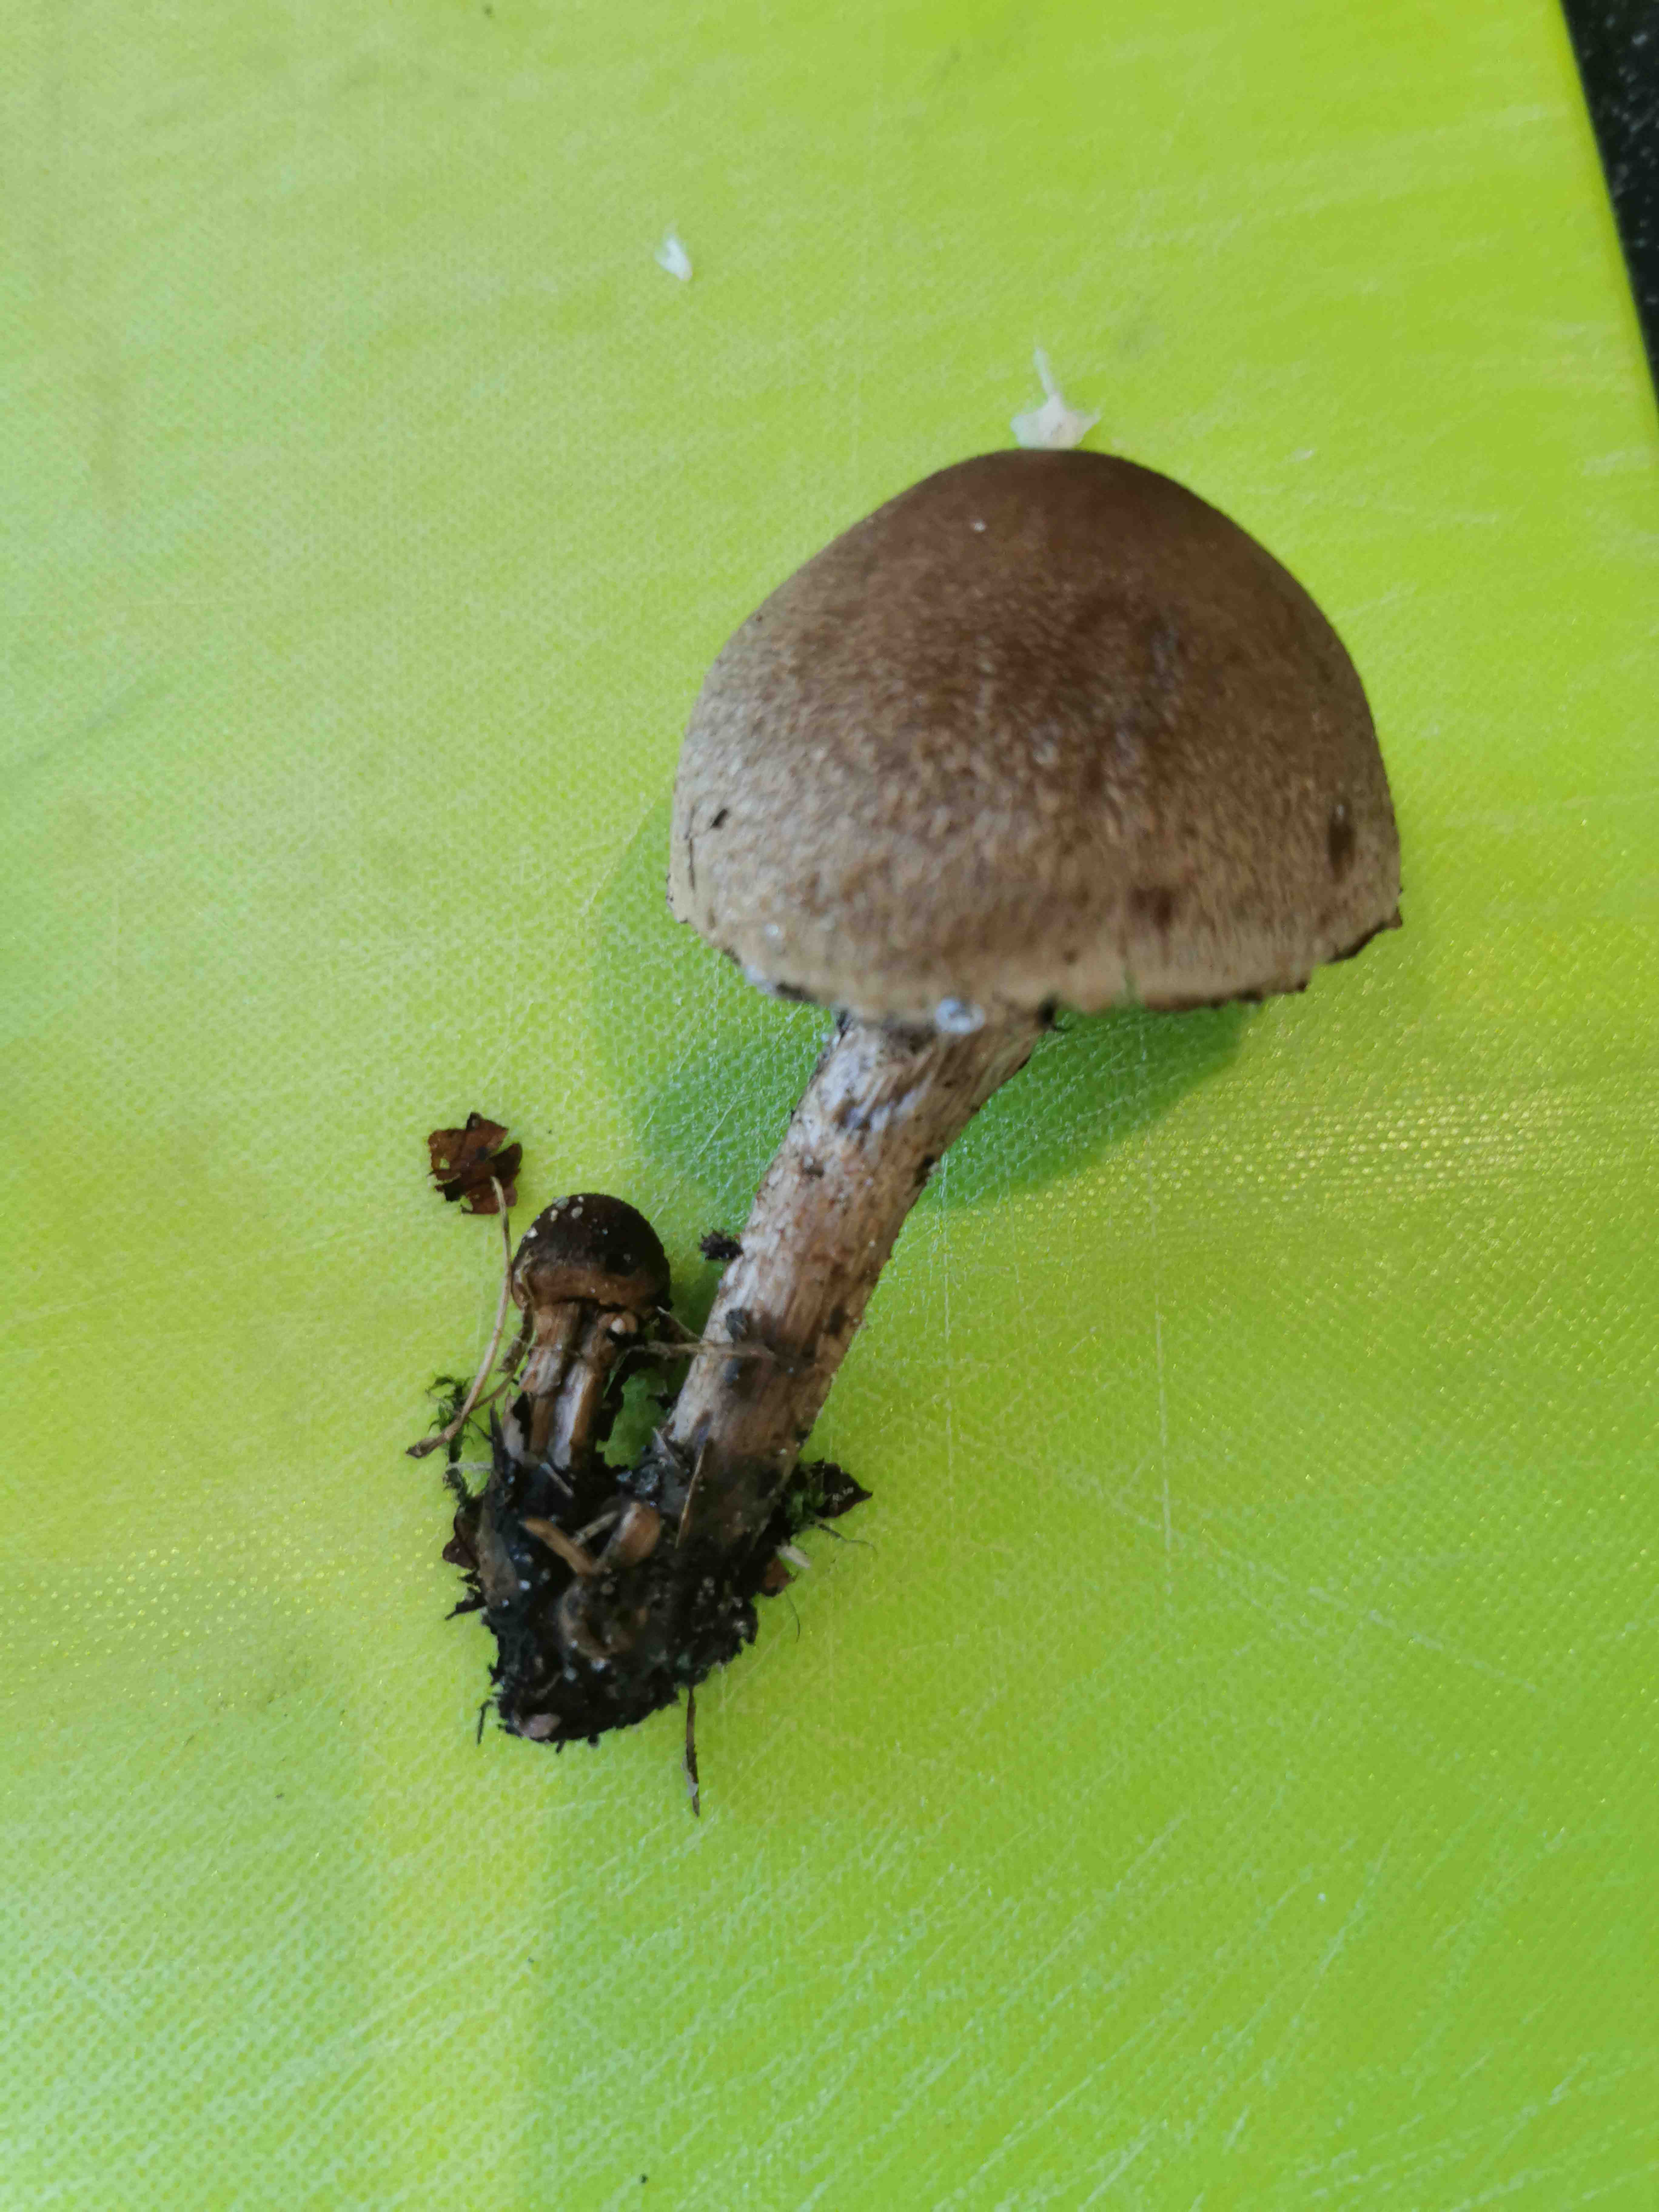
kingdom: Fungi
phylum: Basidiomycota
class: Agaricomycetes
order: Agaricales
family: Psathyrellaceae
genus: Lacrymaria
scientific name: Lacrymaria lacrymabunda
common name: grædende mørkhat
